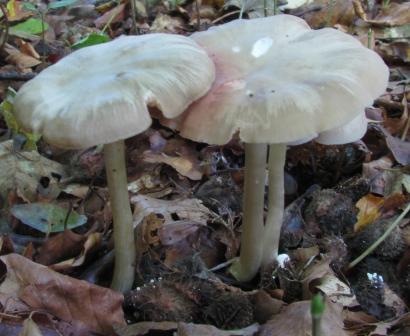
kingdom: Fungi
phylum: Basidiomycota
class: Agaricomycetes
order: Agaricales
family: Entolomataceae
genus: Entoloma
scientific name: Entoloma rhodopolium
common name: skov-rødblad
